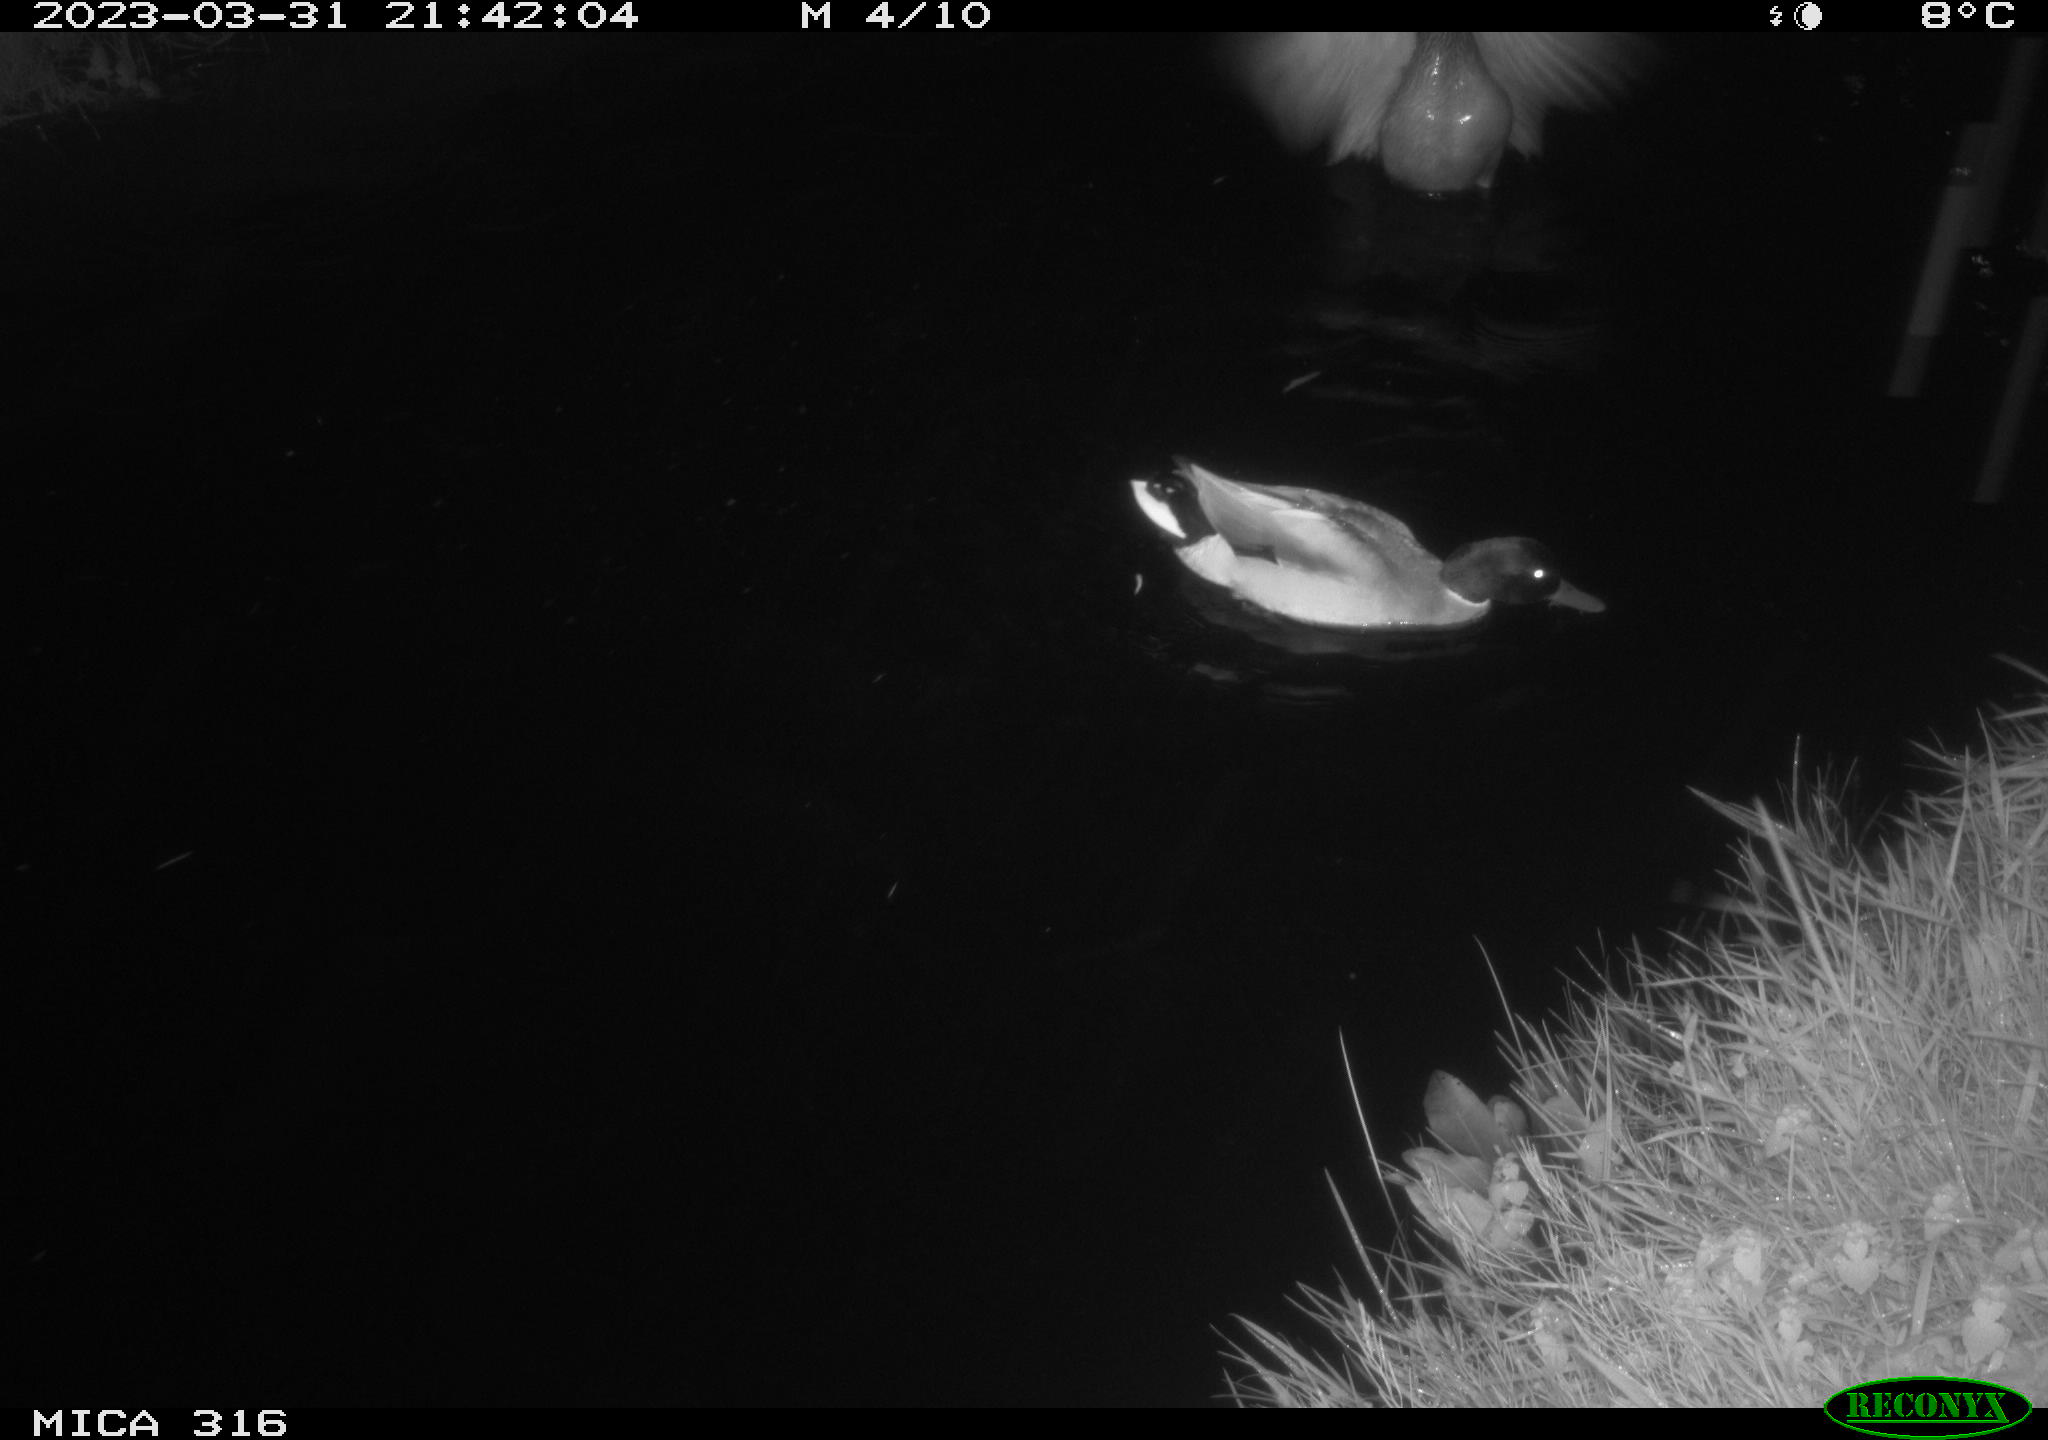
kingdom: Animalia
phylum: Chordata
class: Aves
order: Anseriformes
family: Anatidae
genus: Anas
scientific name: Anas
